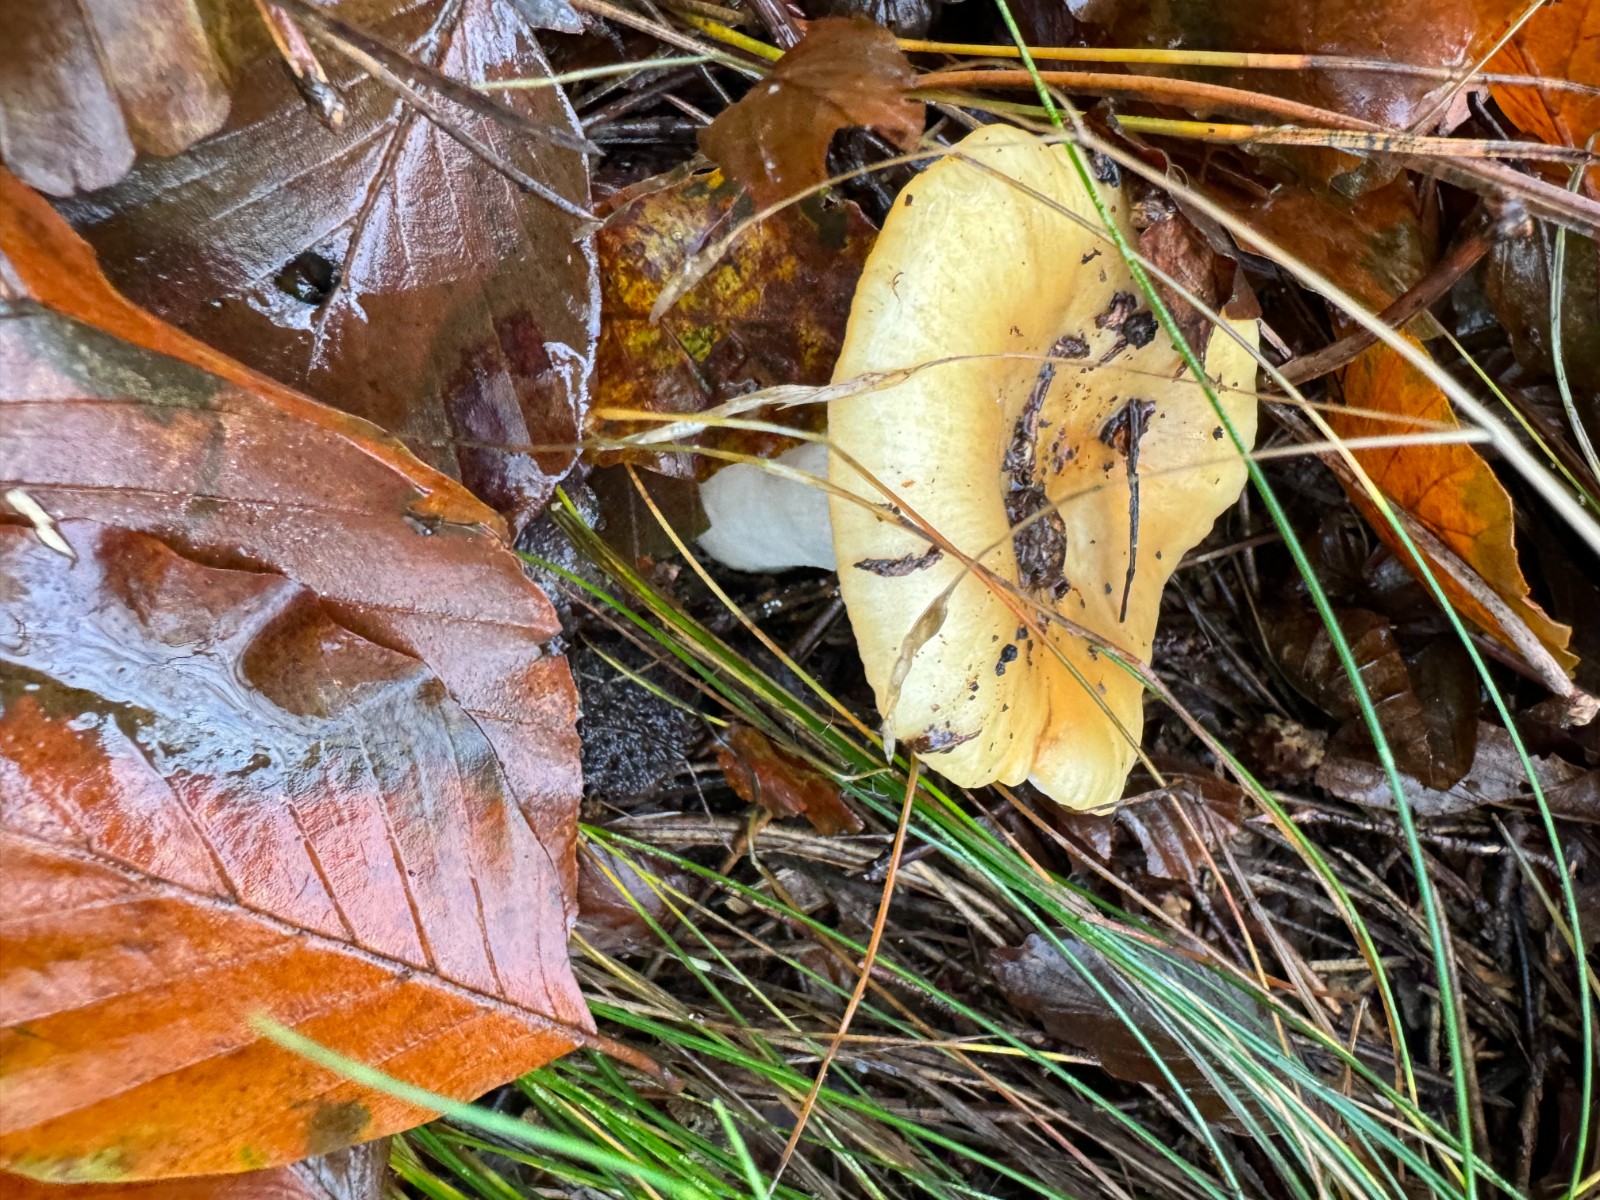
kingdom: Fungi
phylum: Basidiomycota
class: Agaricomycetes
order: Russulales
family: Russulaceae
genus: Russula
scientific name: Russula ochroleuca
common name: okkergul skørhat
